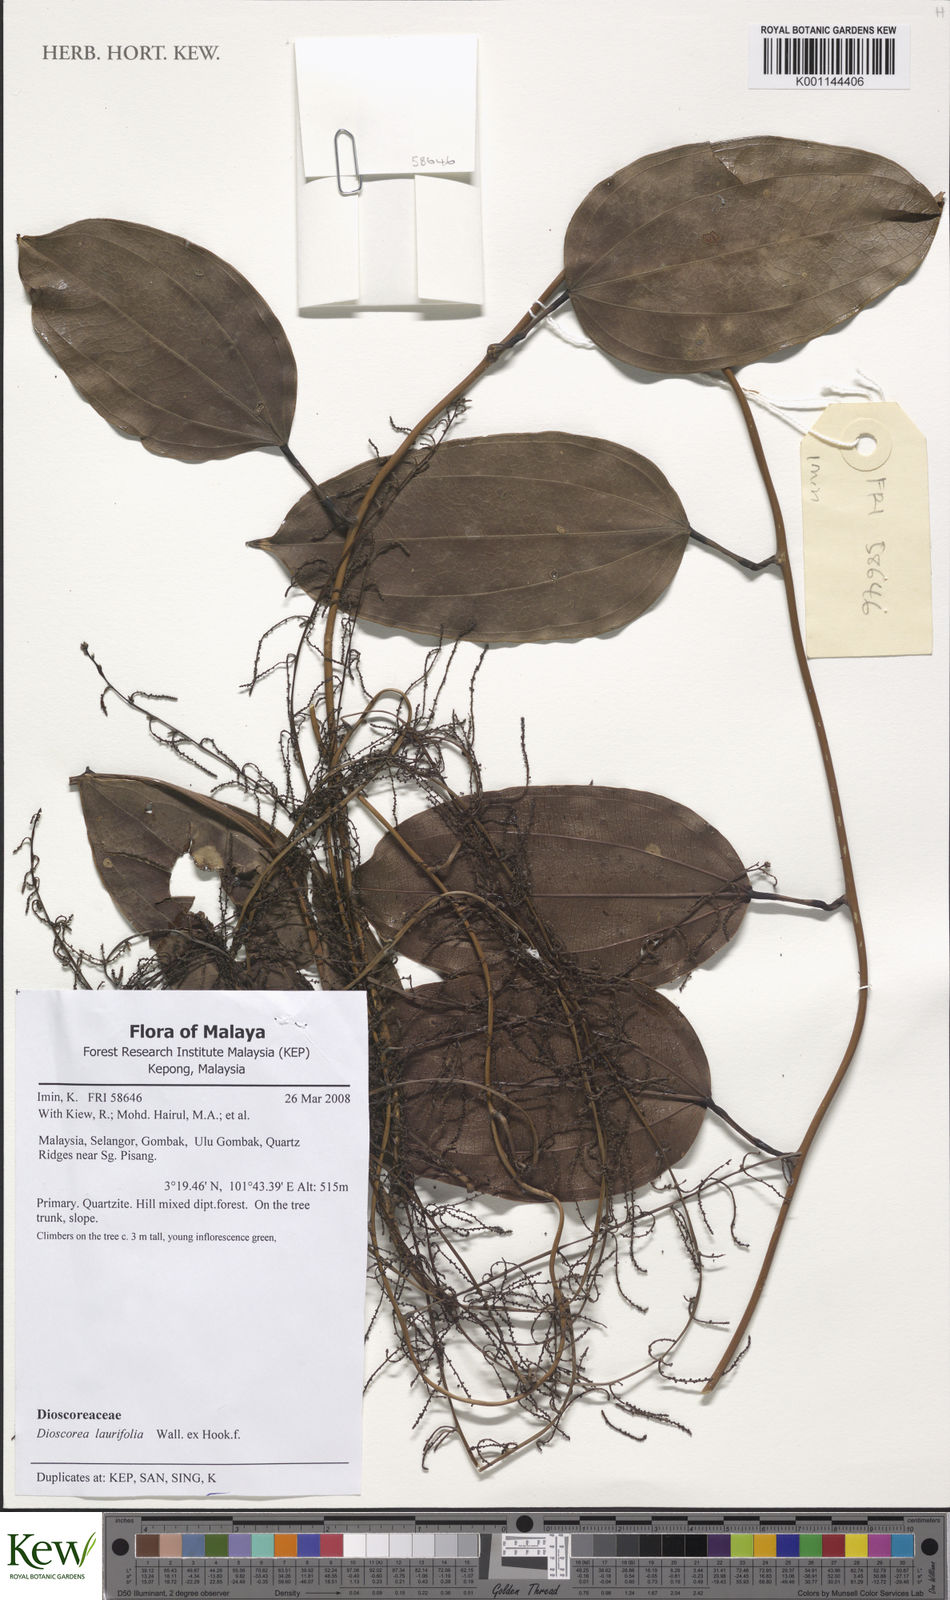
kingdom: Plantae
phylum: Tracheophyta
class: Liliopsida
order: Dioscoreales
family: Dioscoreaceae
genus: Dioscorea
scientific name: Dioscorea laurifolia
